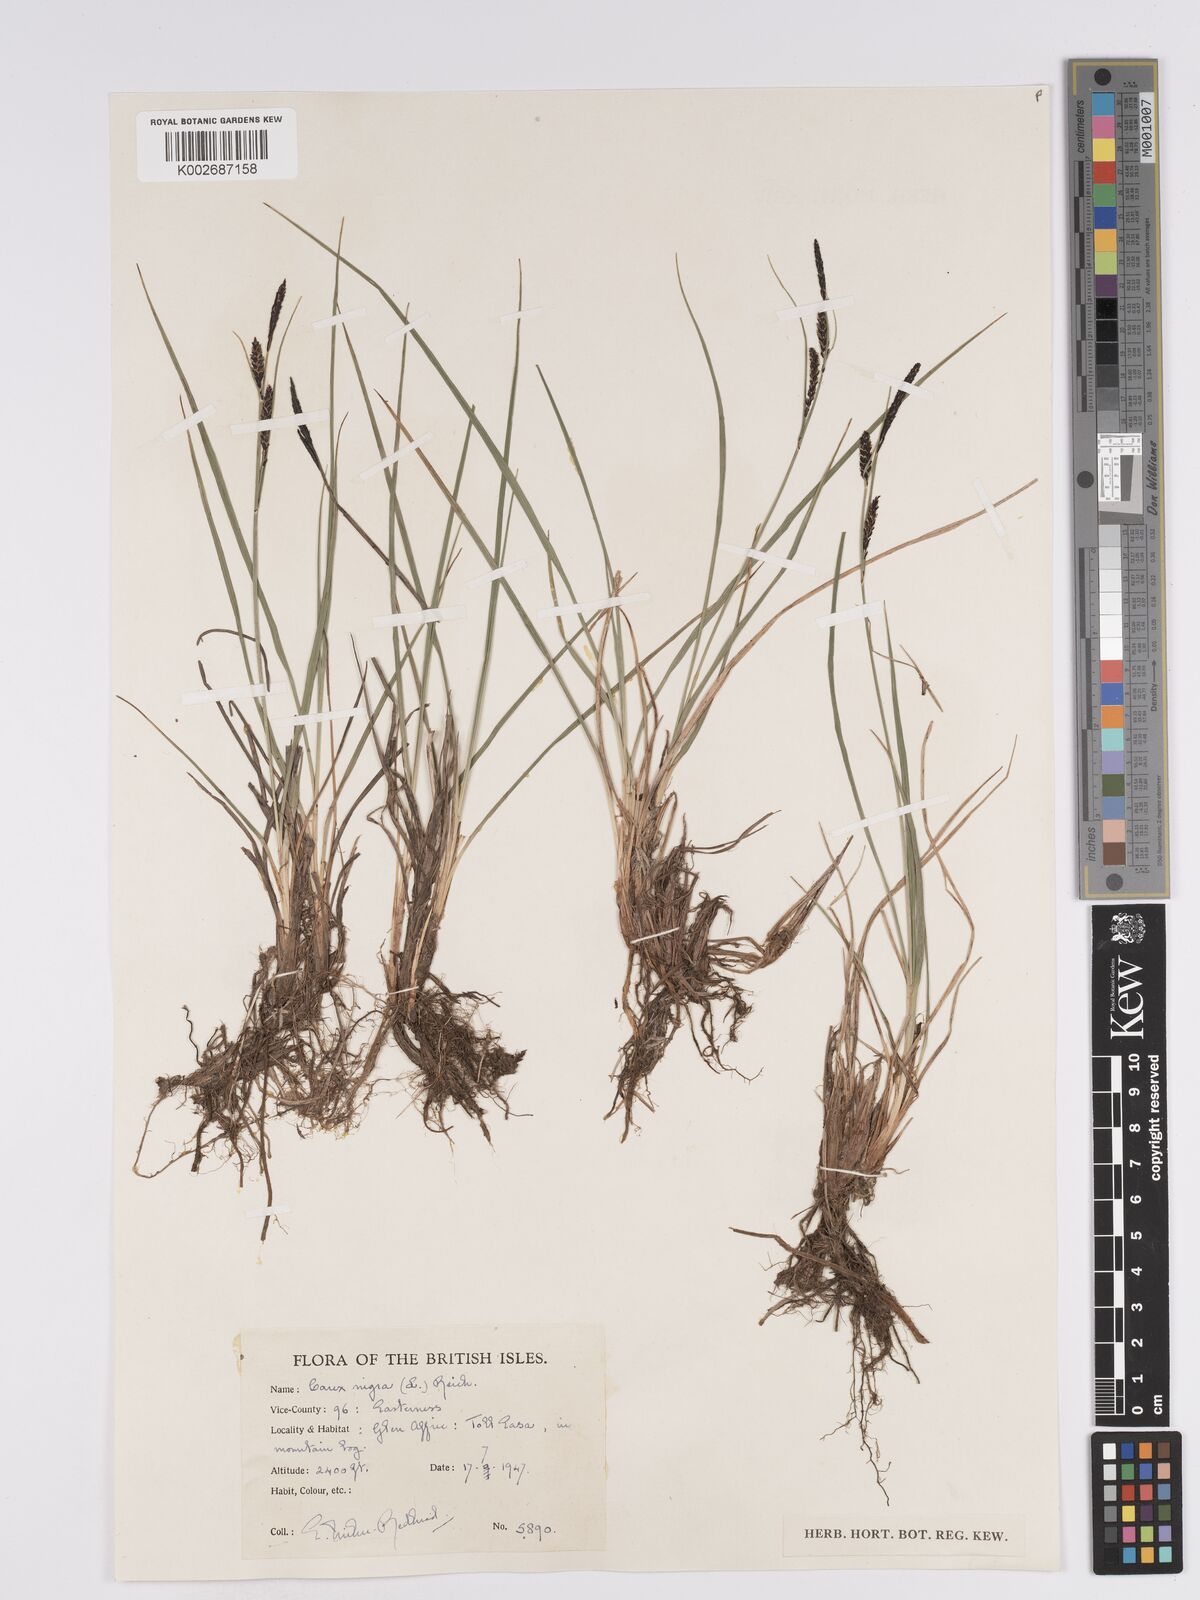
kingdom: Plantae
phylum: Tracheophyta
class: Liliopsida
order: Poales
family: Cyperaceae
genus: Carex
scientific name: Carex nigra
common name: Common sedge
